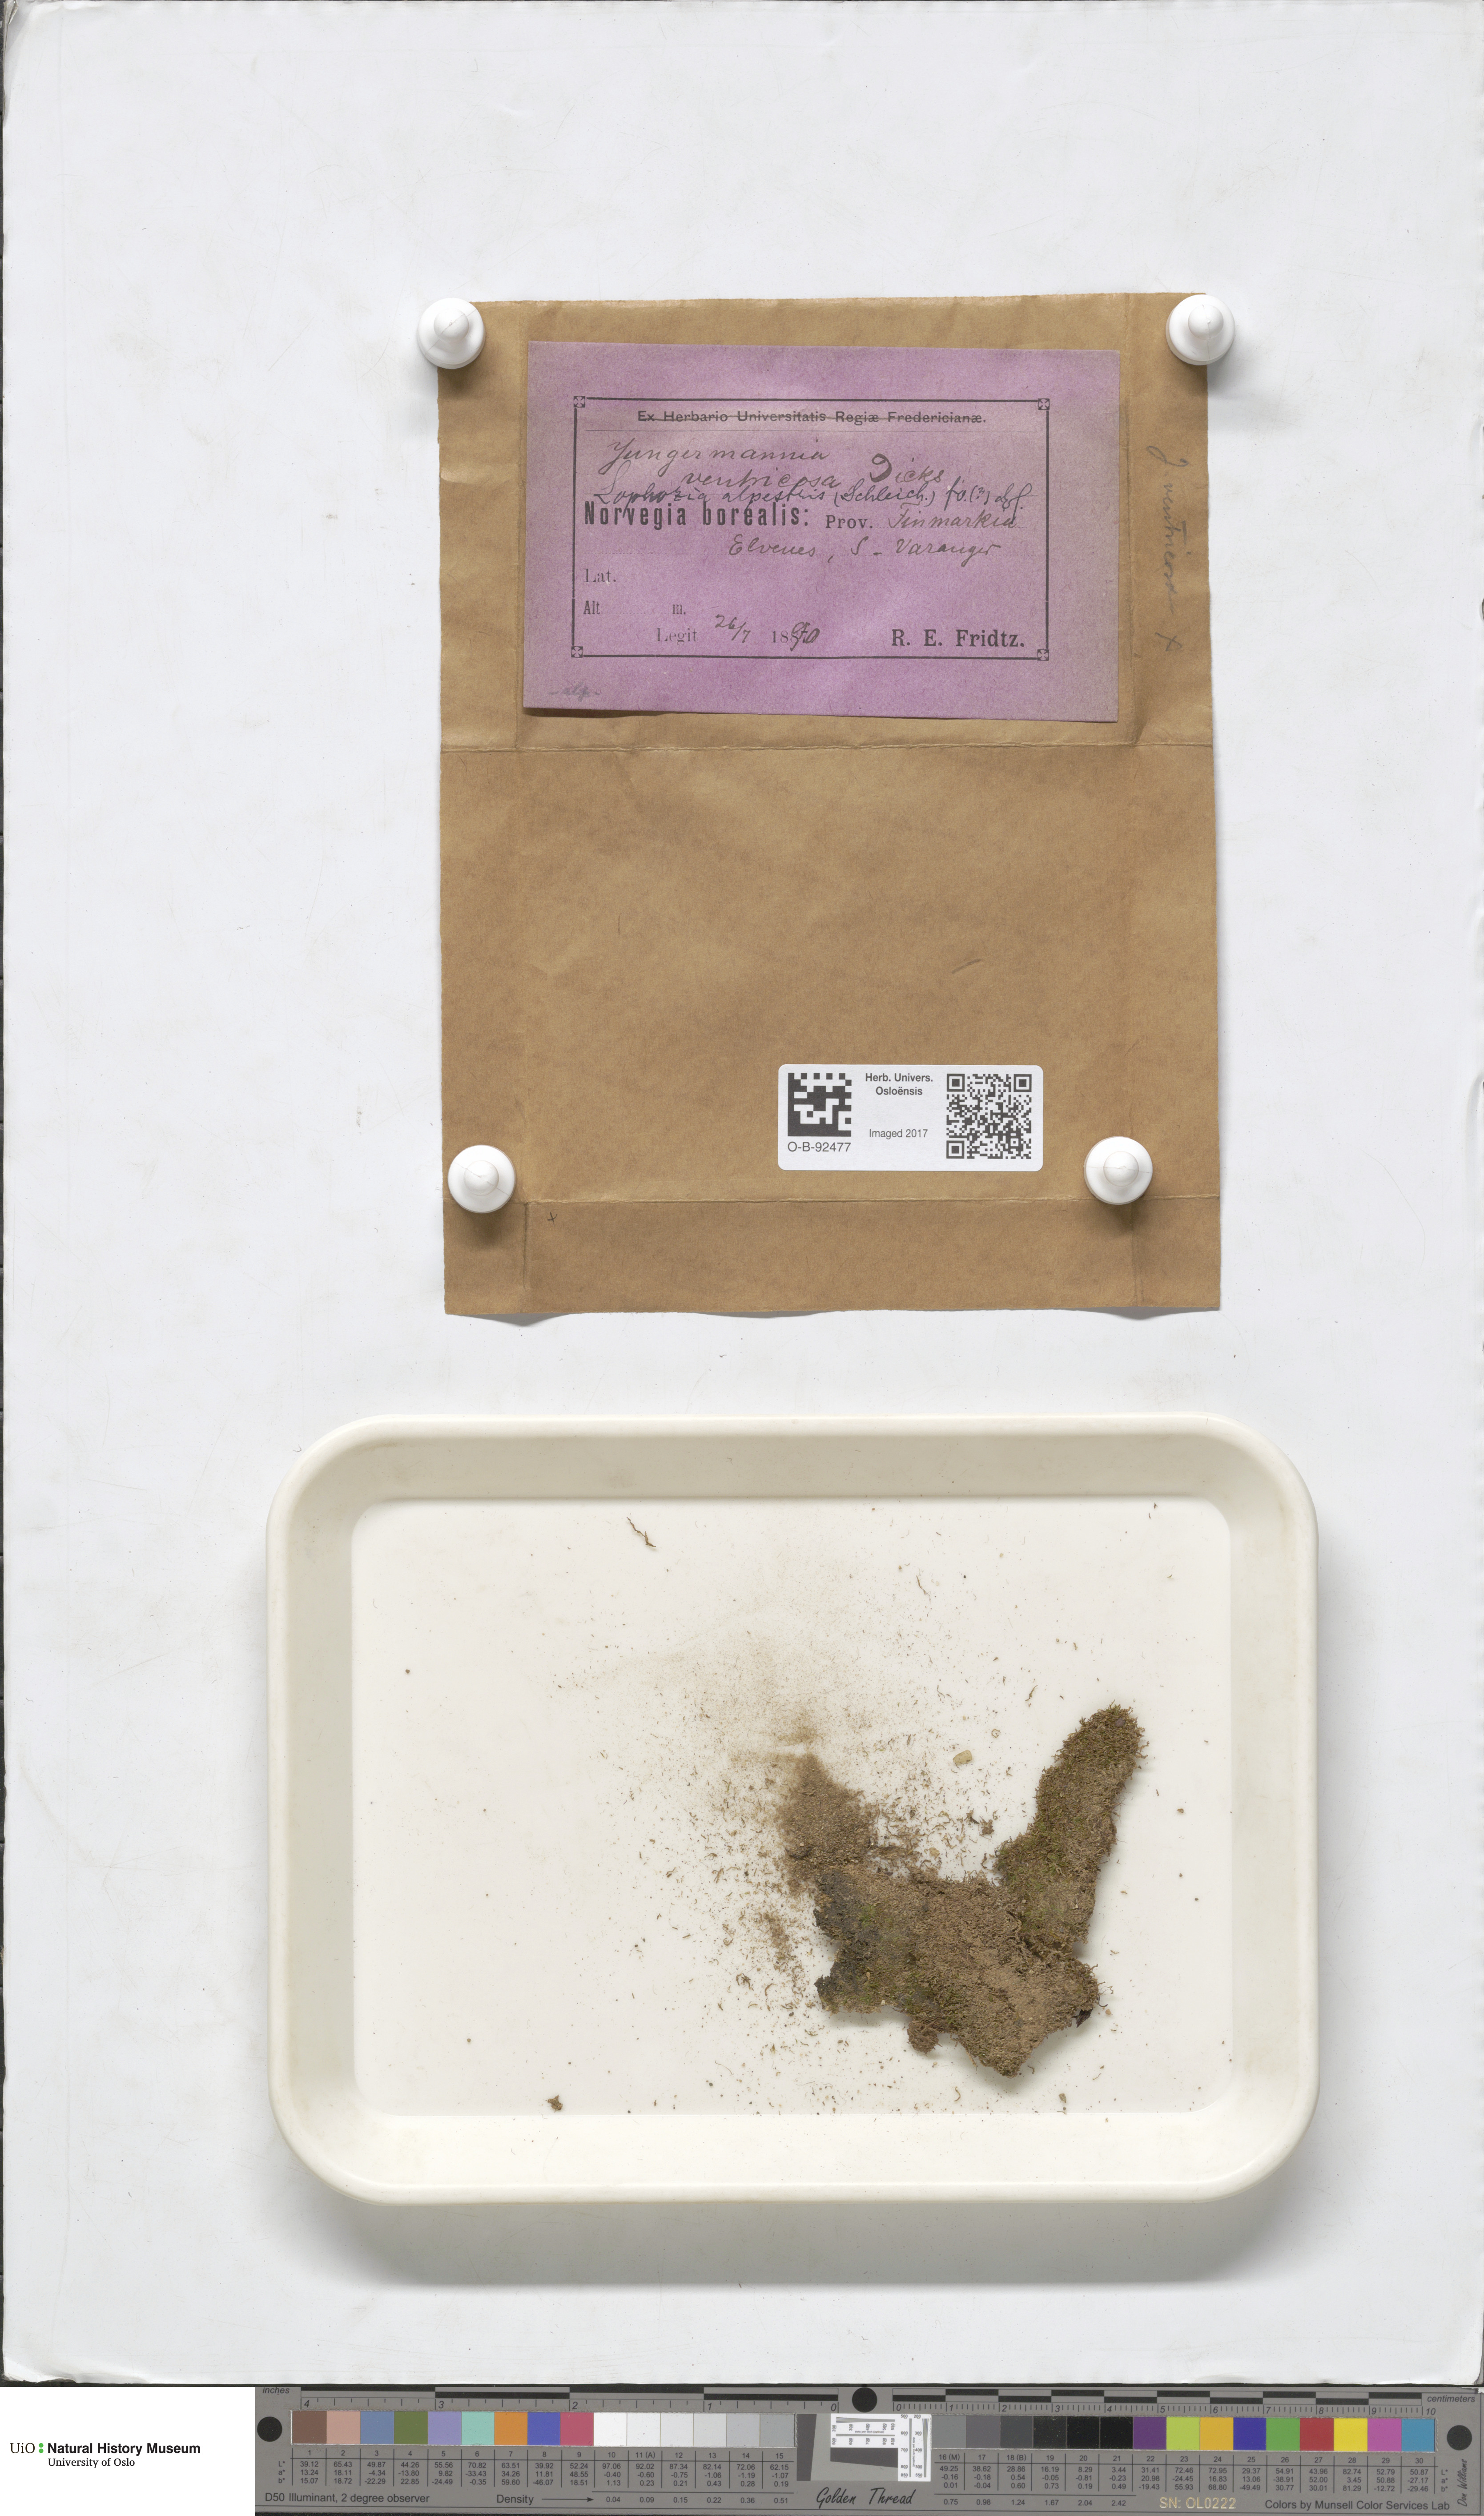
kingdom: Plantae
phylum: Marchantiophyta
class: Jungermanniopsida
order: Jungermanniales
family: Anastrophyllaceae
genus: Barbilophozia
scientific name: Barbilophozia sudetica
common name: Hill notchwort
